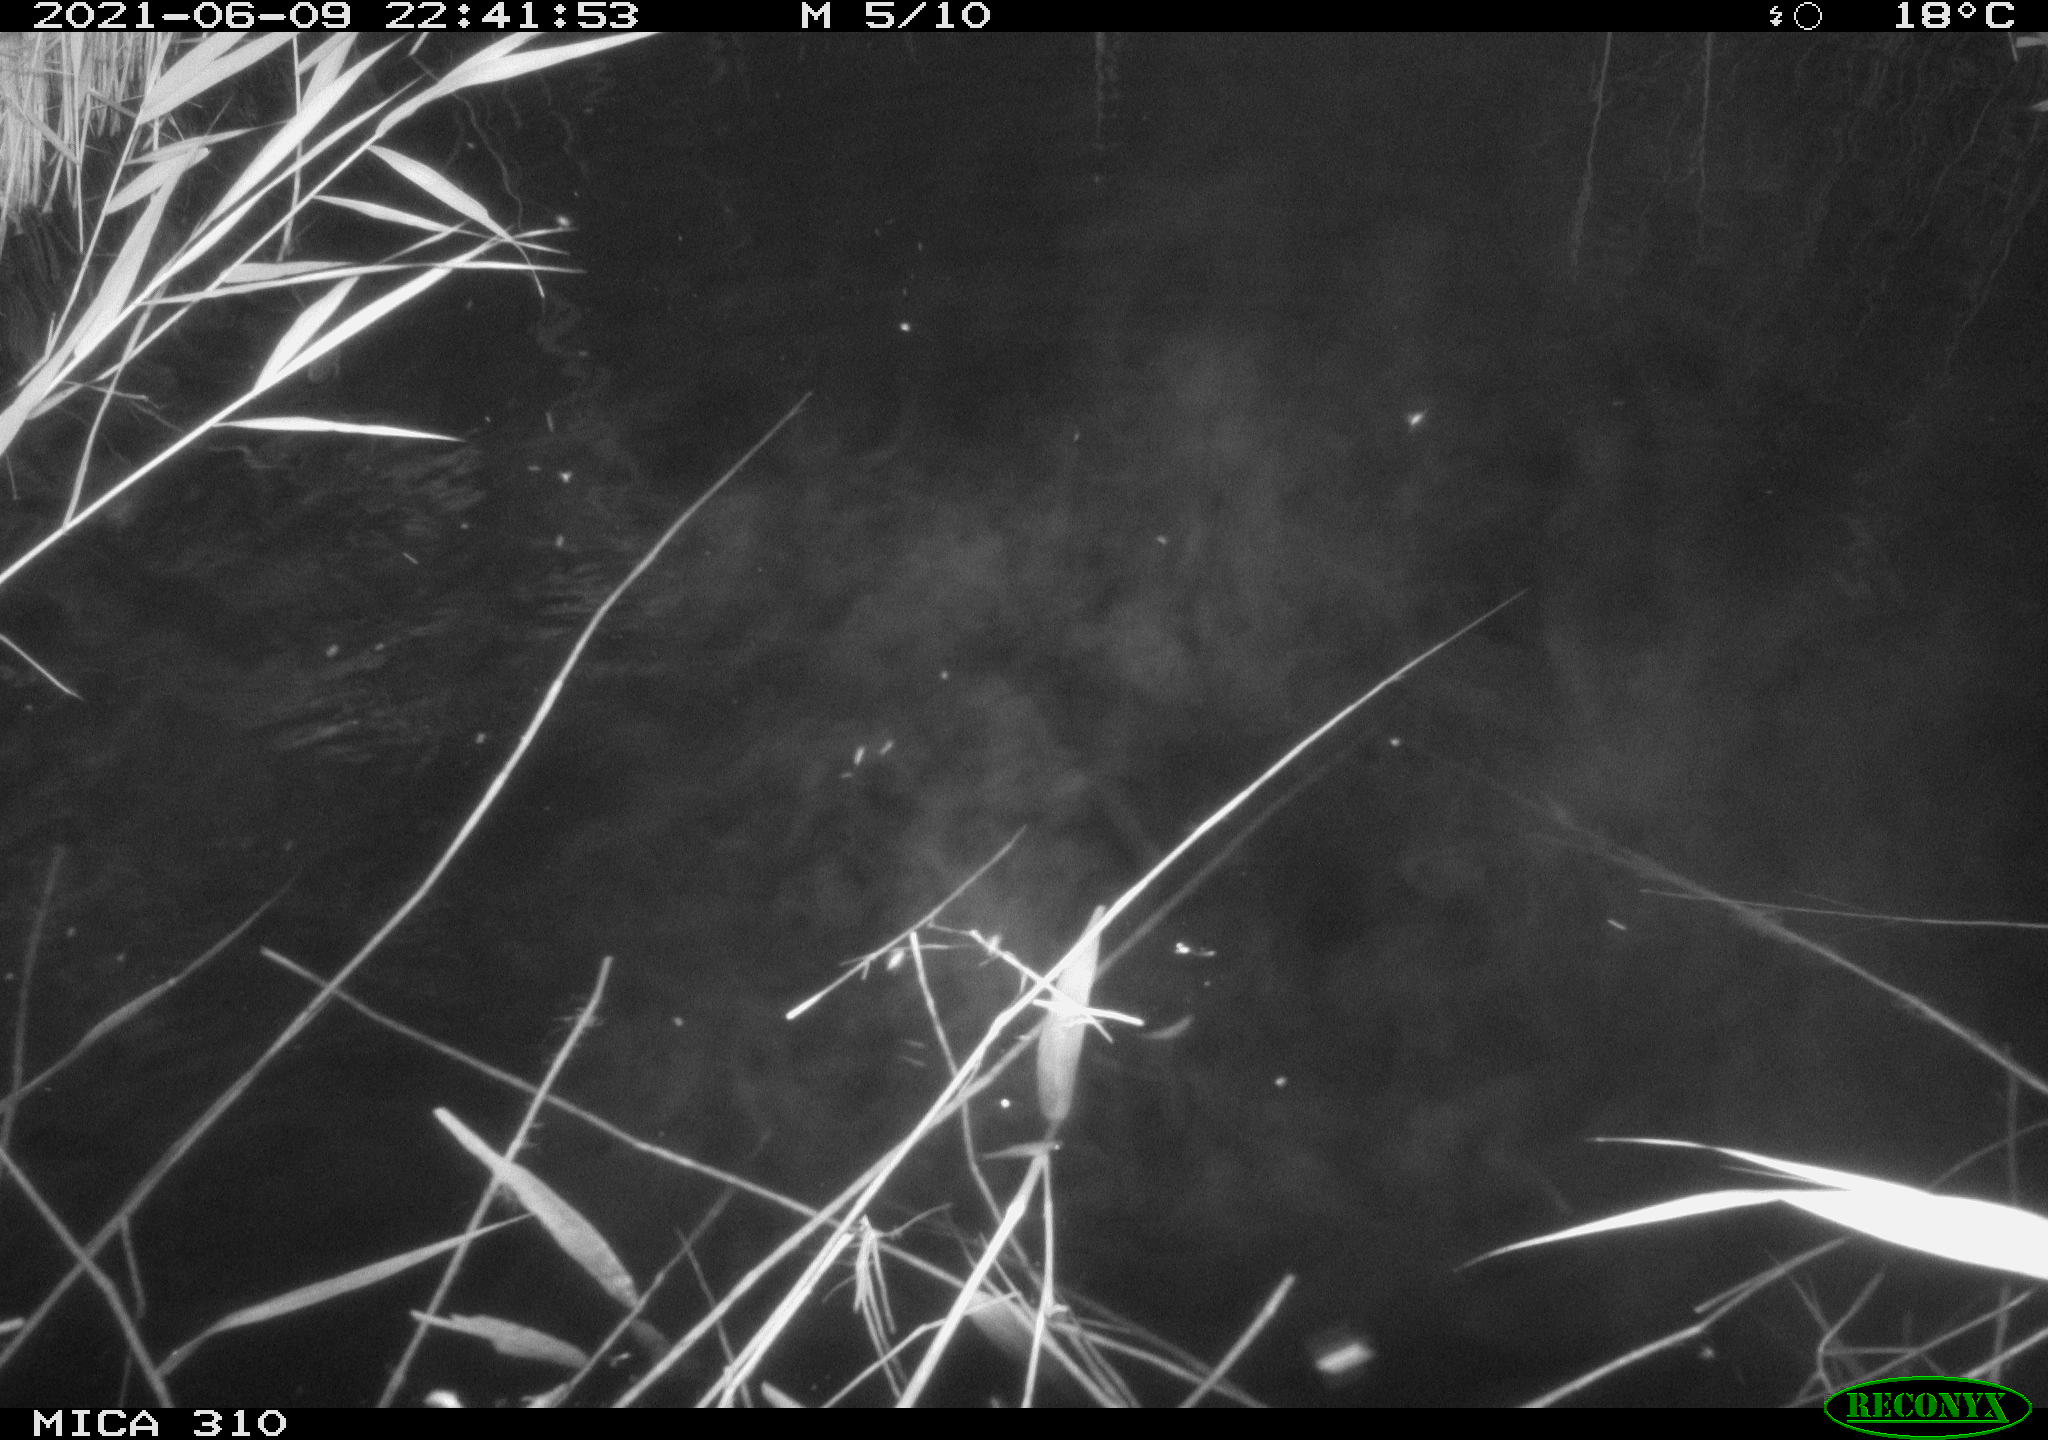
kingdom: Animalia
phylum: Chordata
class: Mammalia
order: Rodentia
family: Cricetidae
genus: Ondatra
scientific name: Ondatra zibethicus
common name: Muskrat
